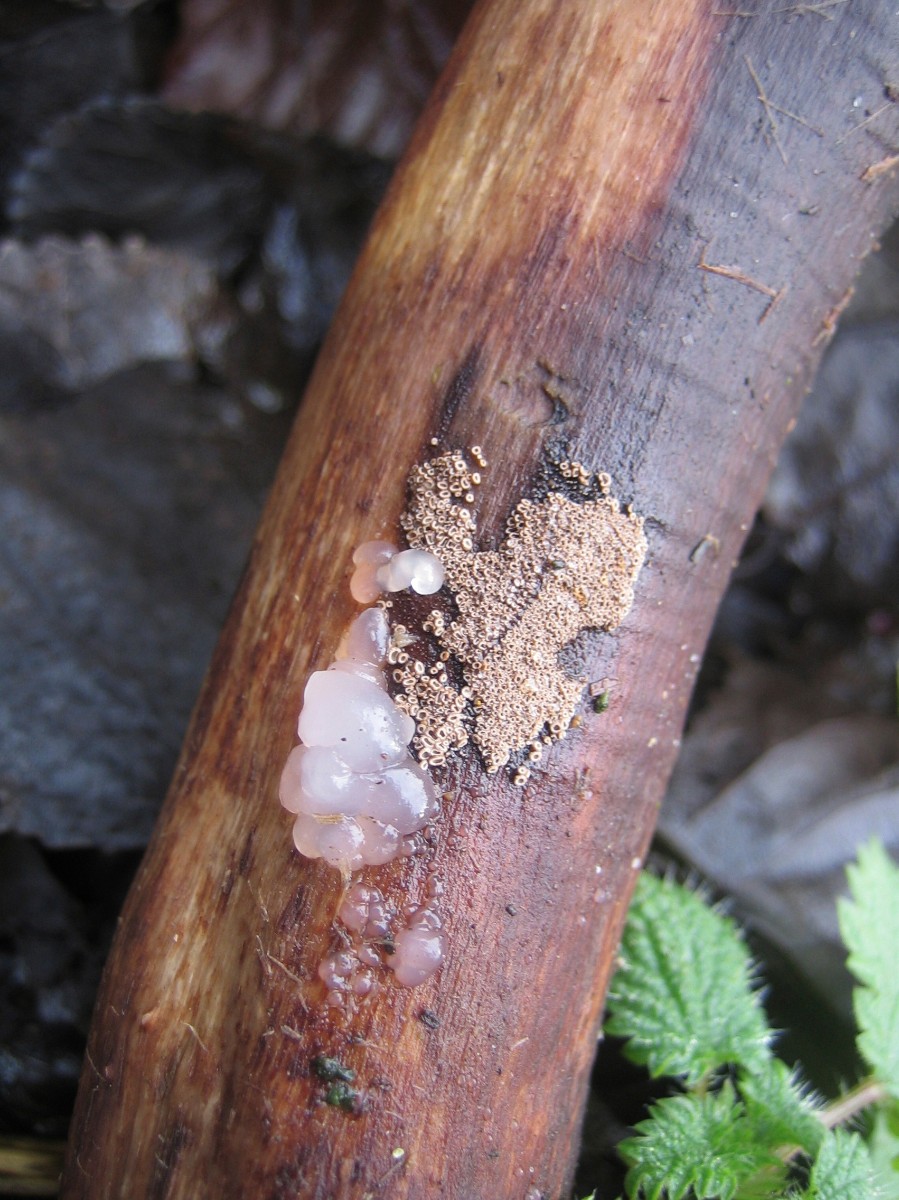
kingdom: Fungi
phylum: Basidiomycota
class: Agaricomycetes
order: Agaricales
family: Niaceae
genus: Merismodes
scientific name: Merismodes anomala
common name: almindelig læderskål
